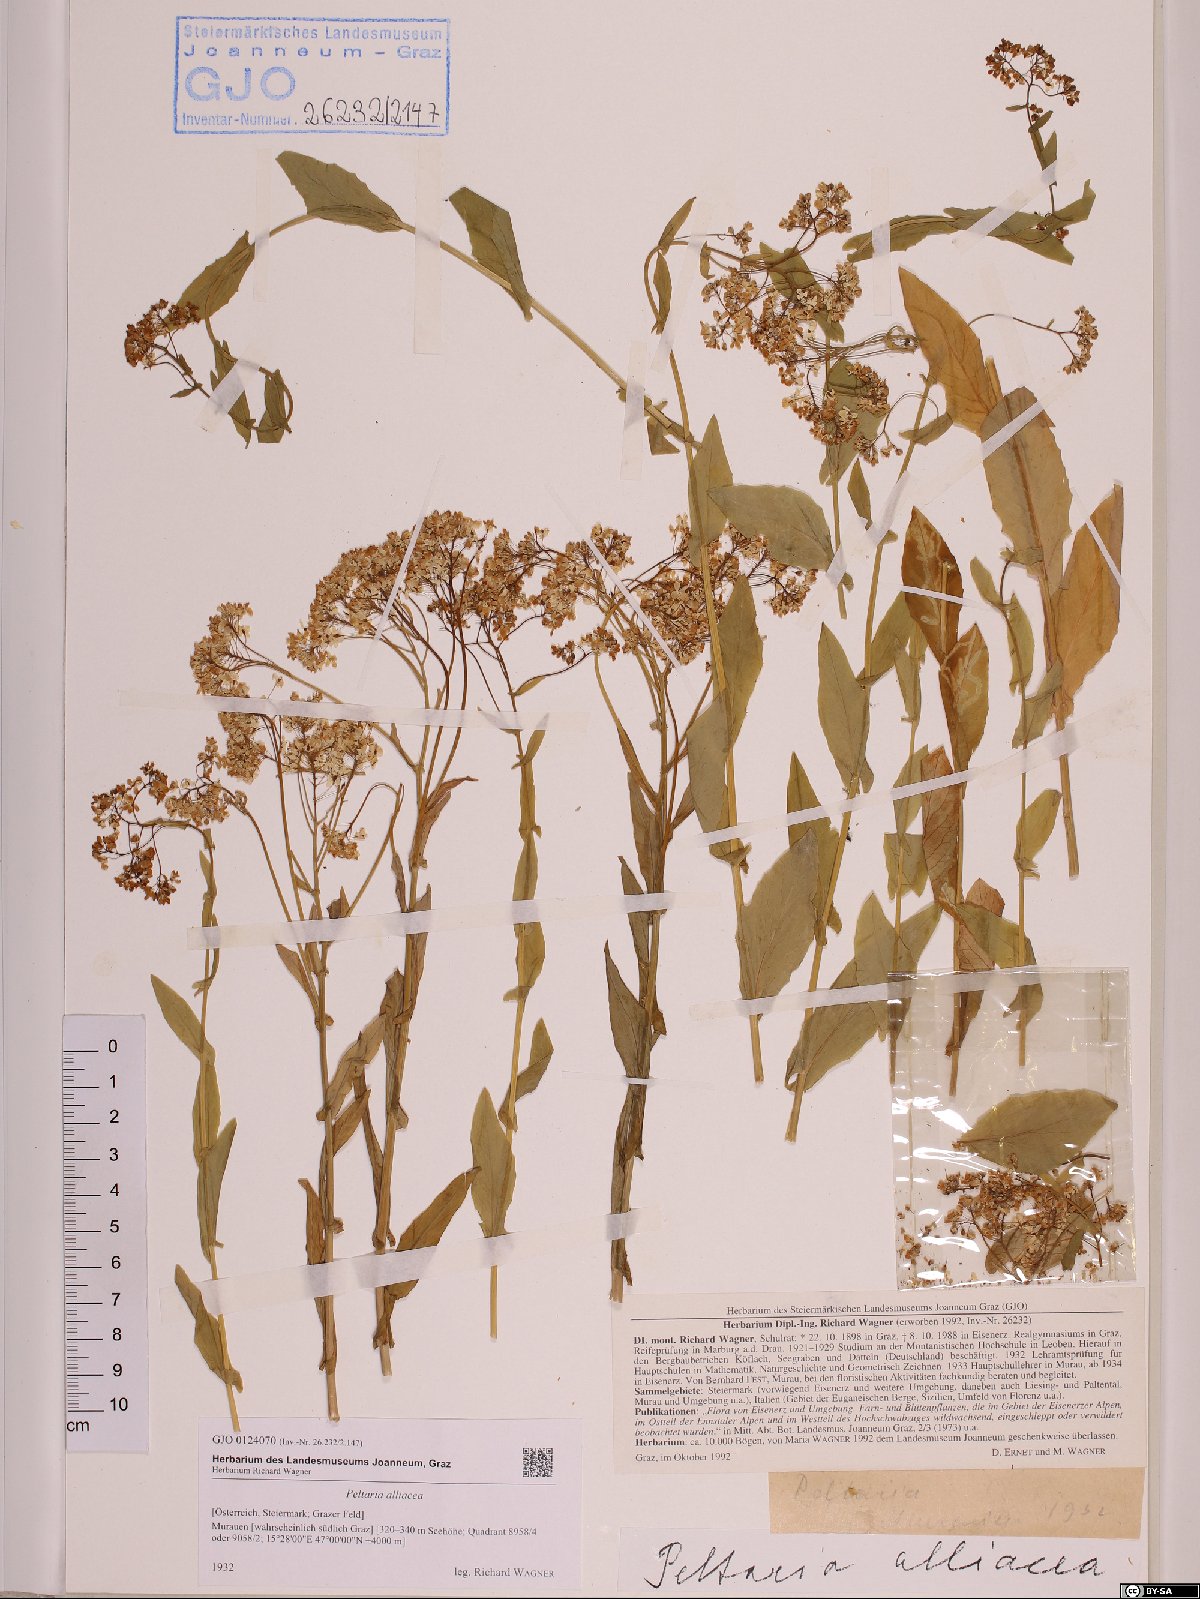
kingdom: Plantae
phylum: Tracheophyta
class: Magnoliopsida
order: Brassicales
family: Brassicaceae
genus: Peltaria
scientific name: Peltaria alliacea
